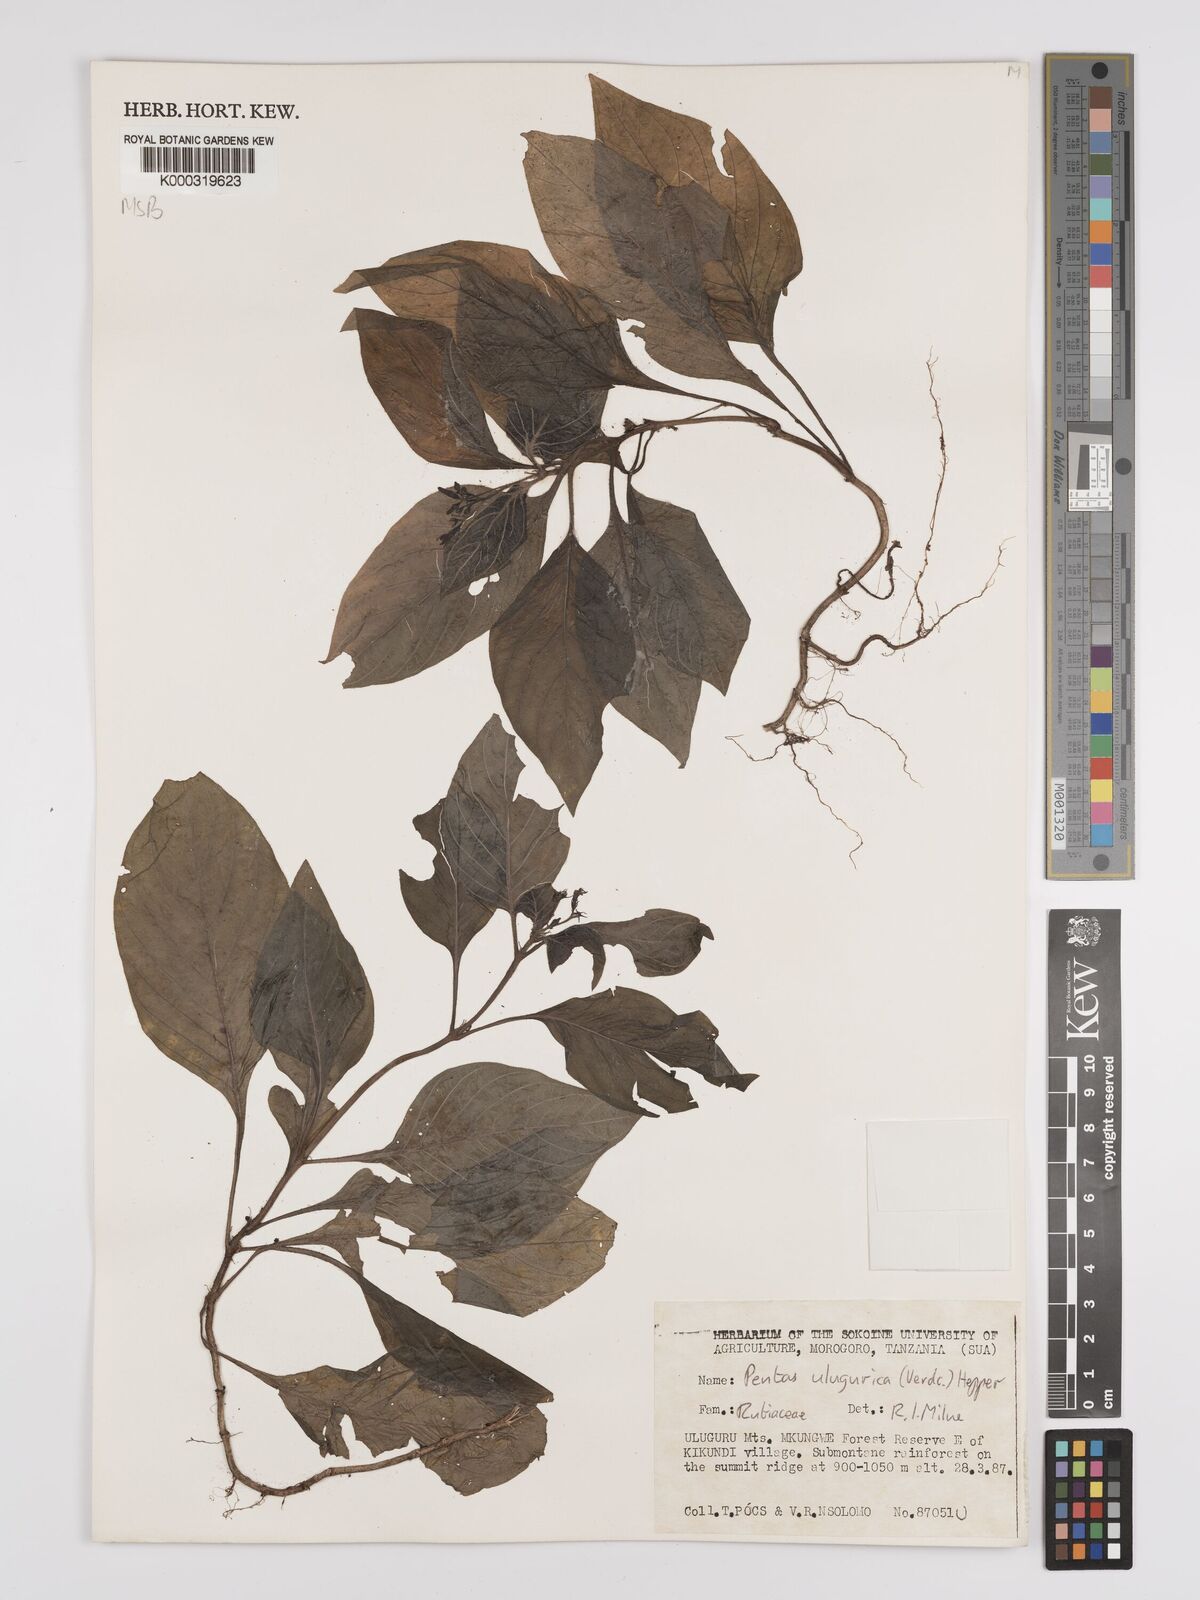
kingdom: Plantae
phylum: Tracheophyta
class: Magnoliopsida
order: Gentianales
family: Rubiaceae
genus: Phyllopentas
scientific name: Phyllopentas ulugurica
